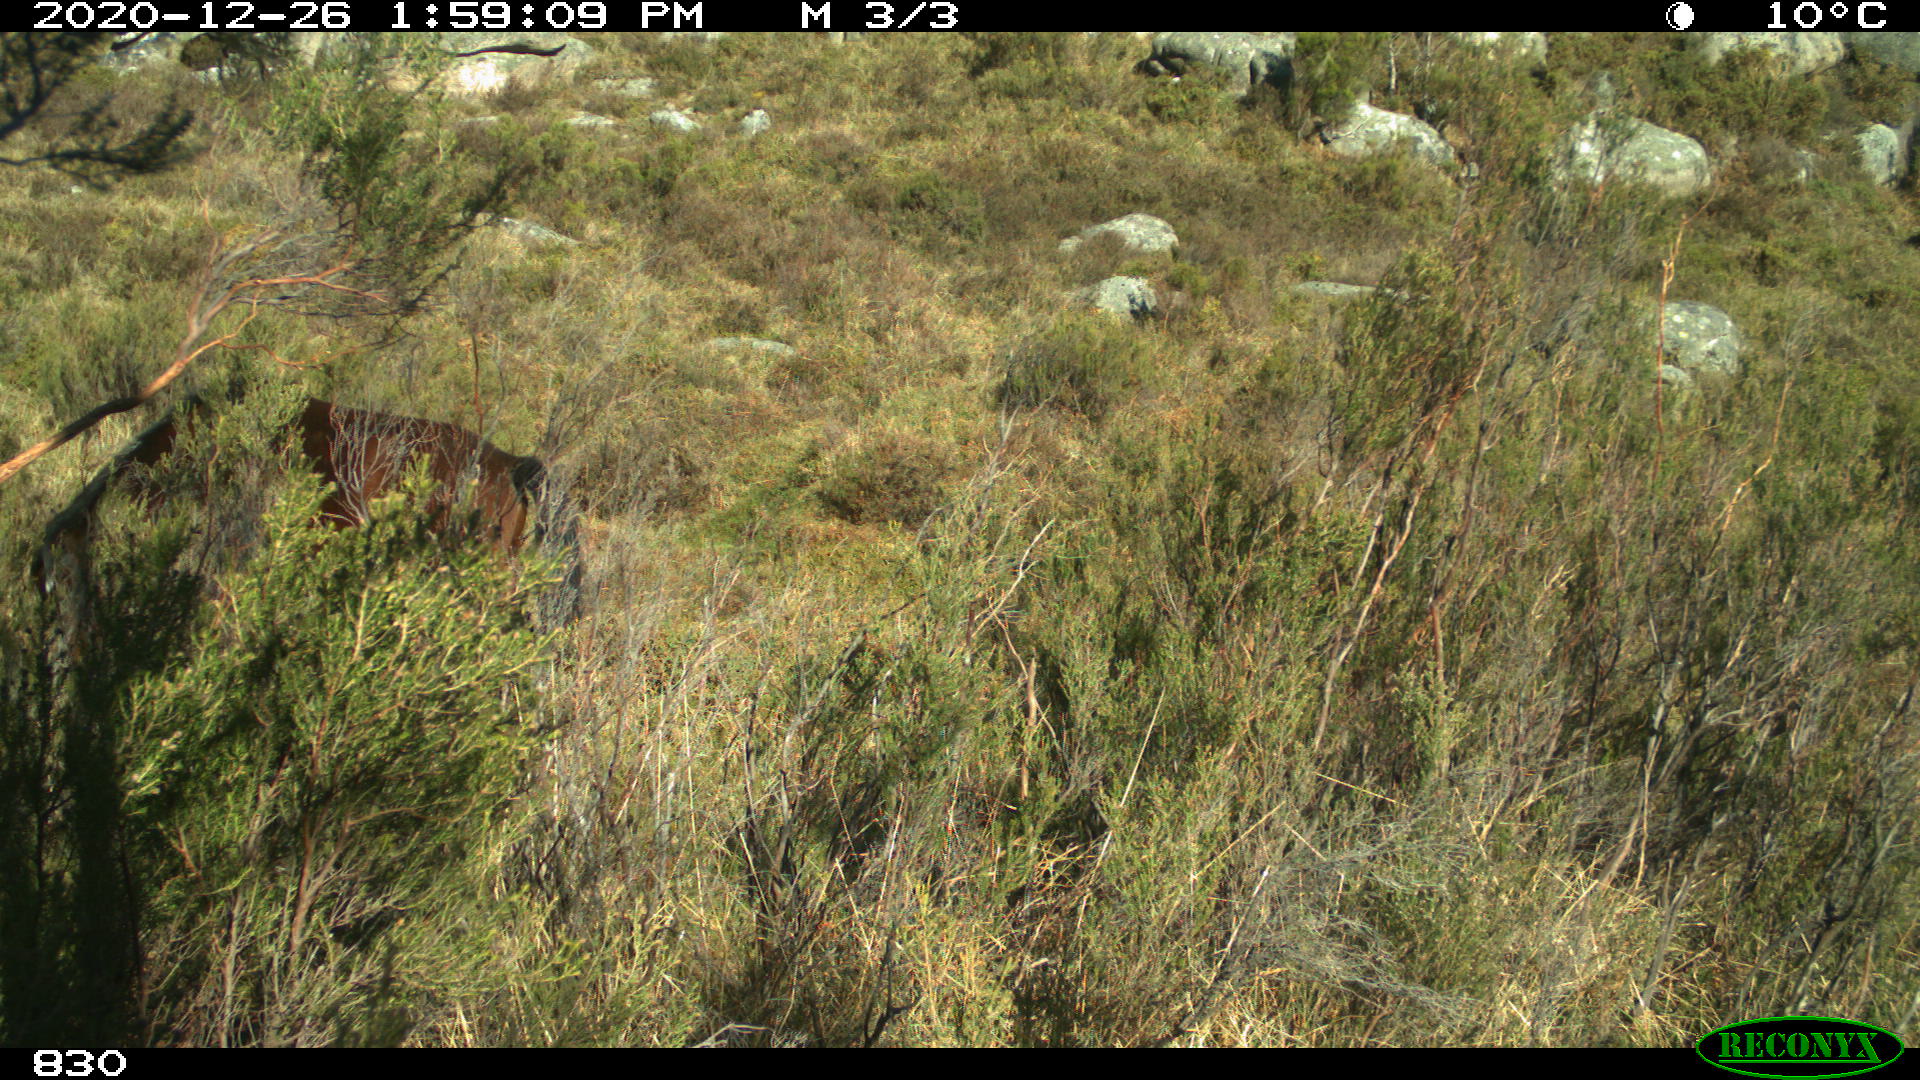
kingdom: Animalia
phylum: Chordata
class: Mammalia
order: Perissodactyla
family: Equidae
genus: Equus
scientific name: Equus caballus
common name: Horse
